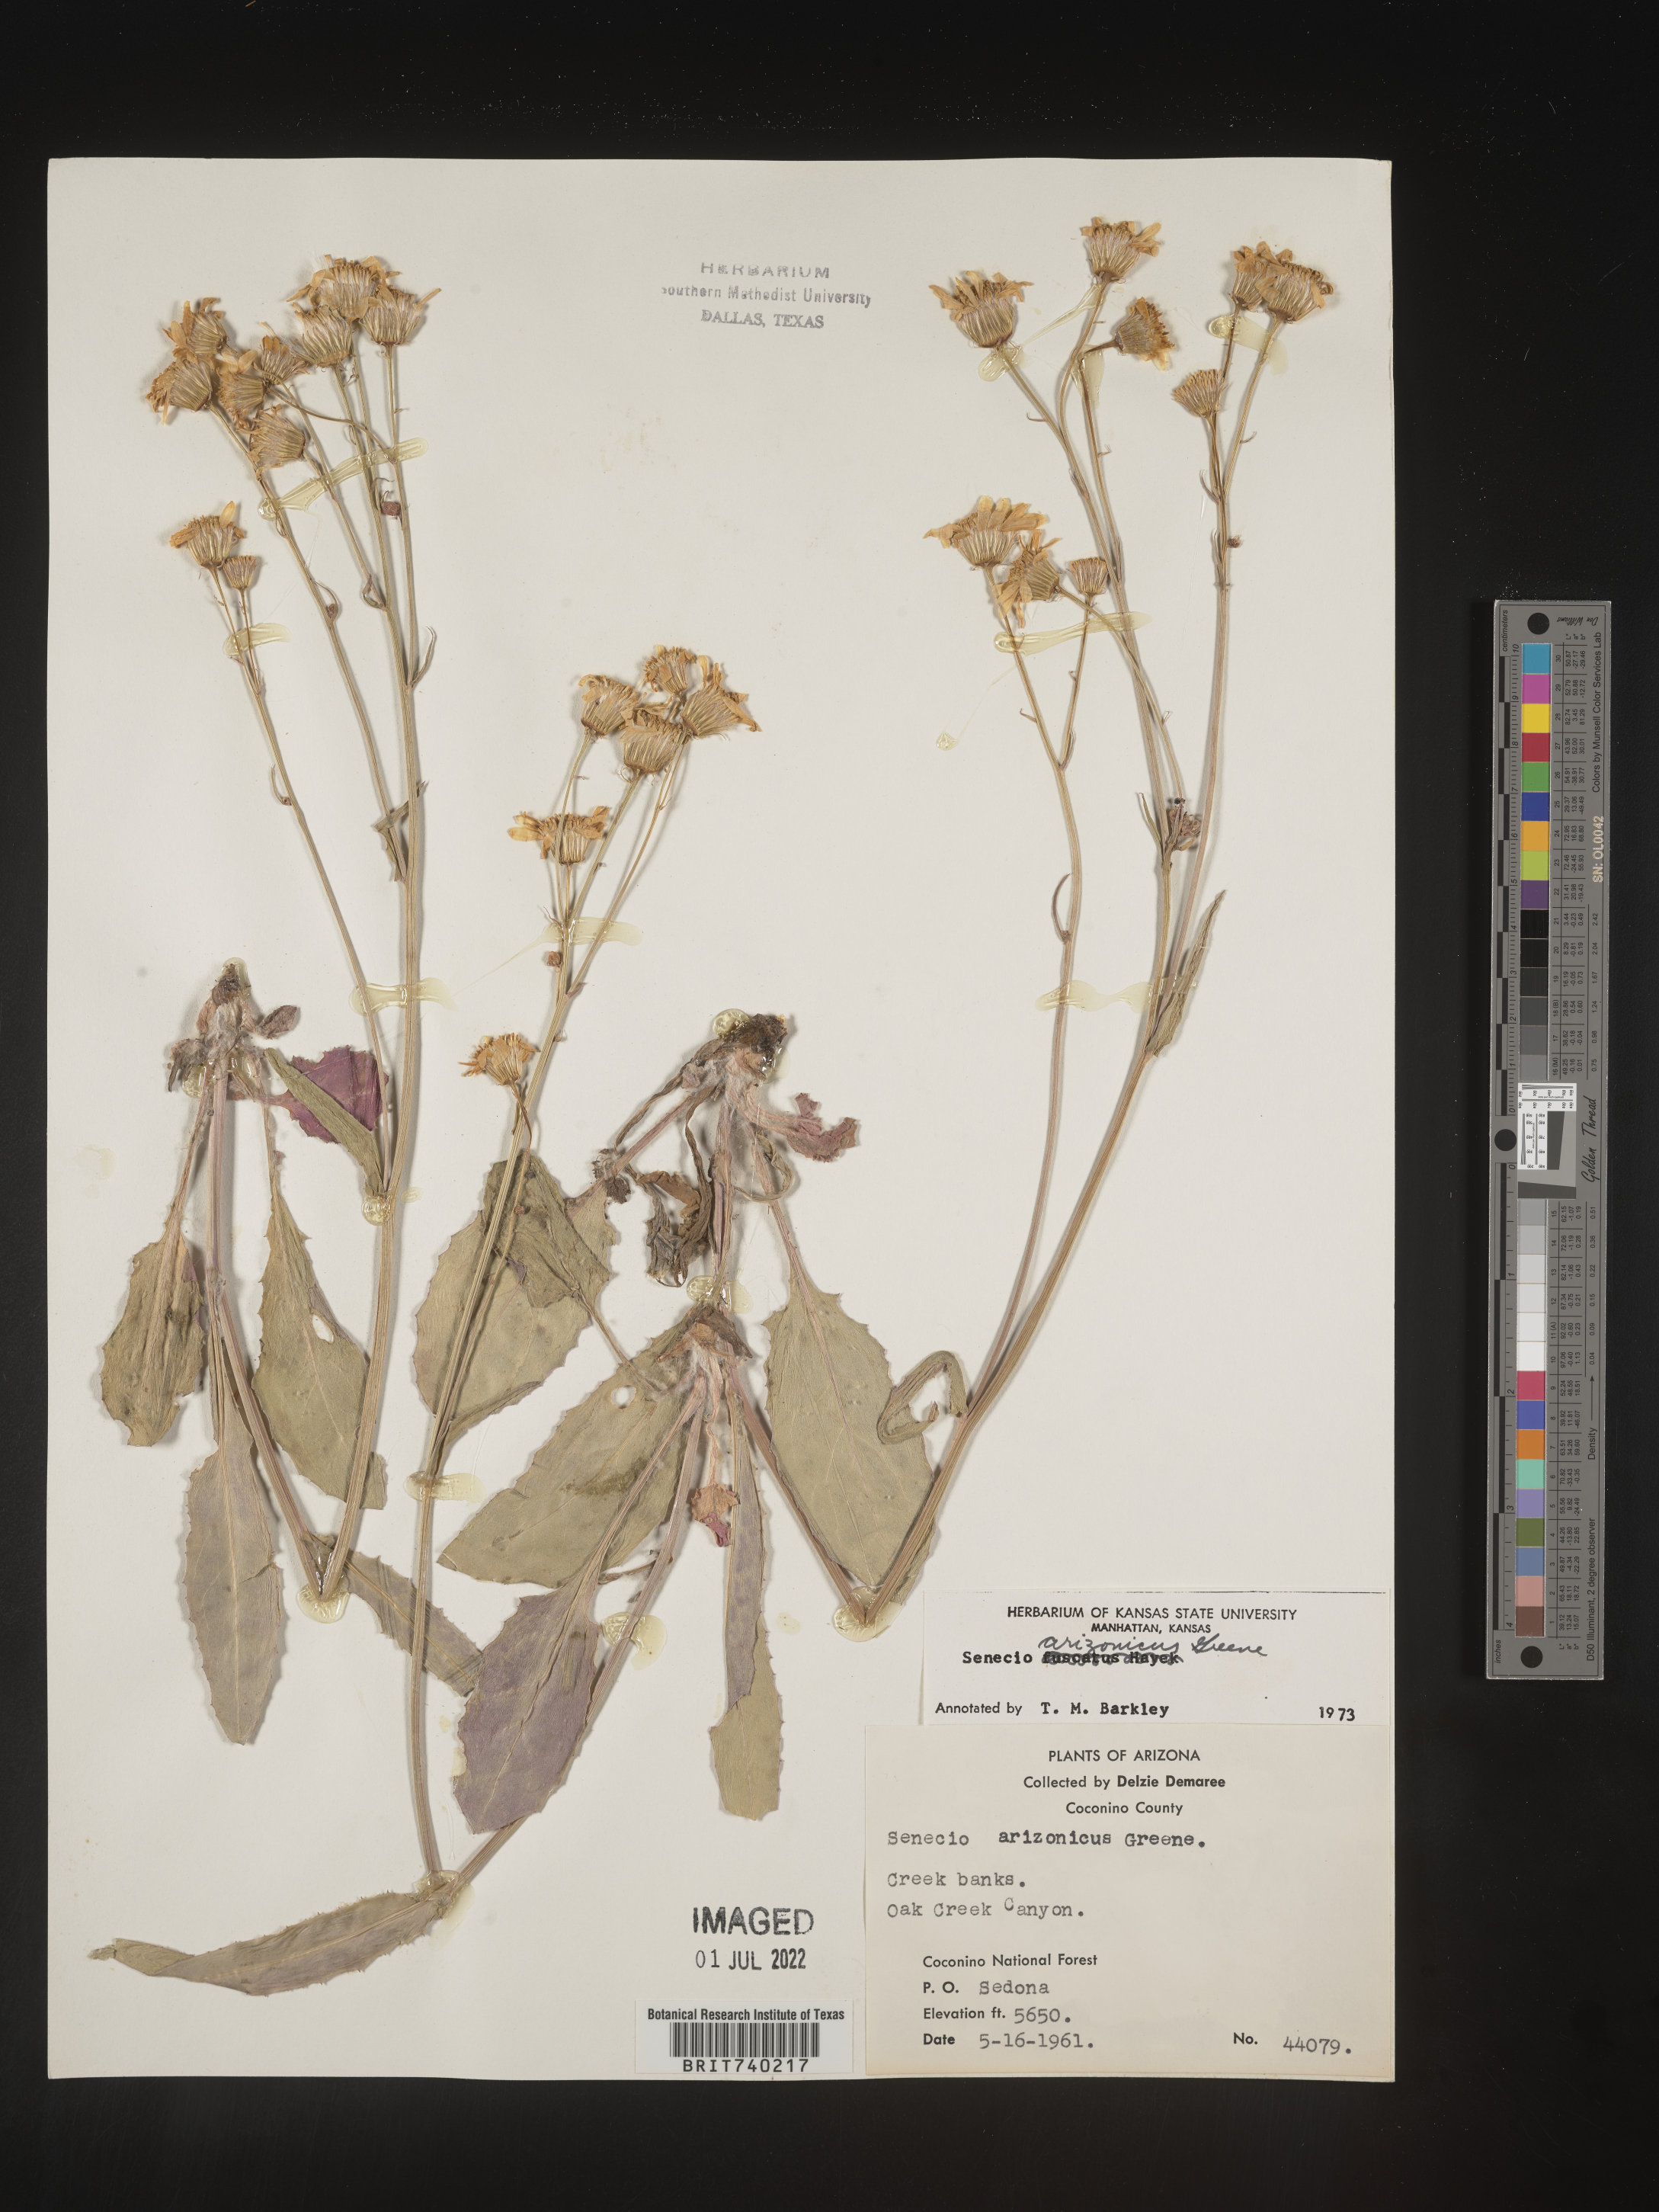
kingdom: Plantae
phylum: Tracheophyta
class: Magnoliopsida
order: Asterales
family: Asteraceae
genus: Senecio
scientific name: Senecio arizonicus
